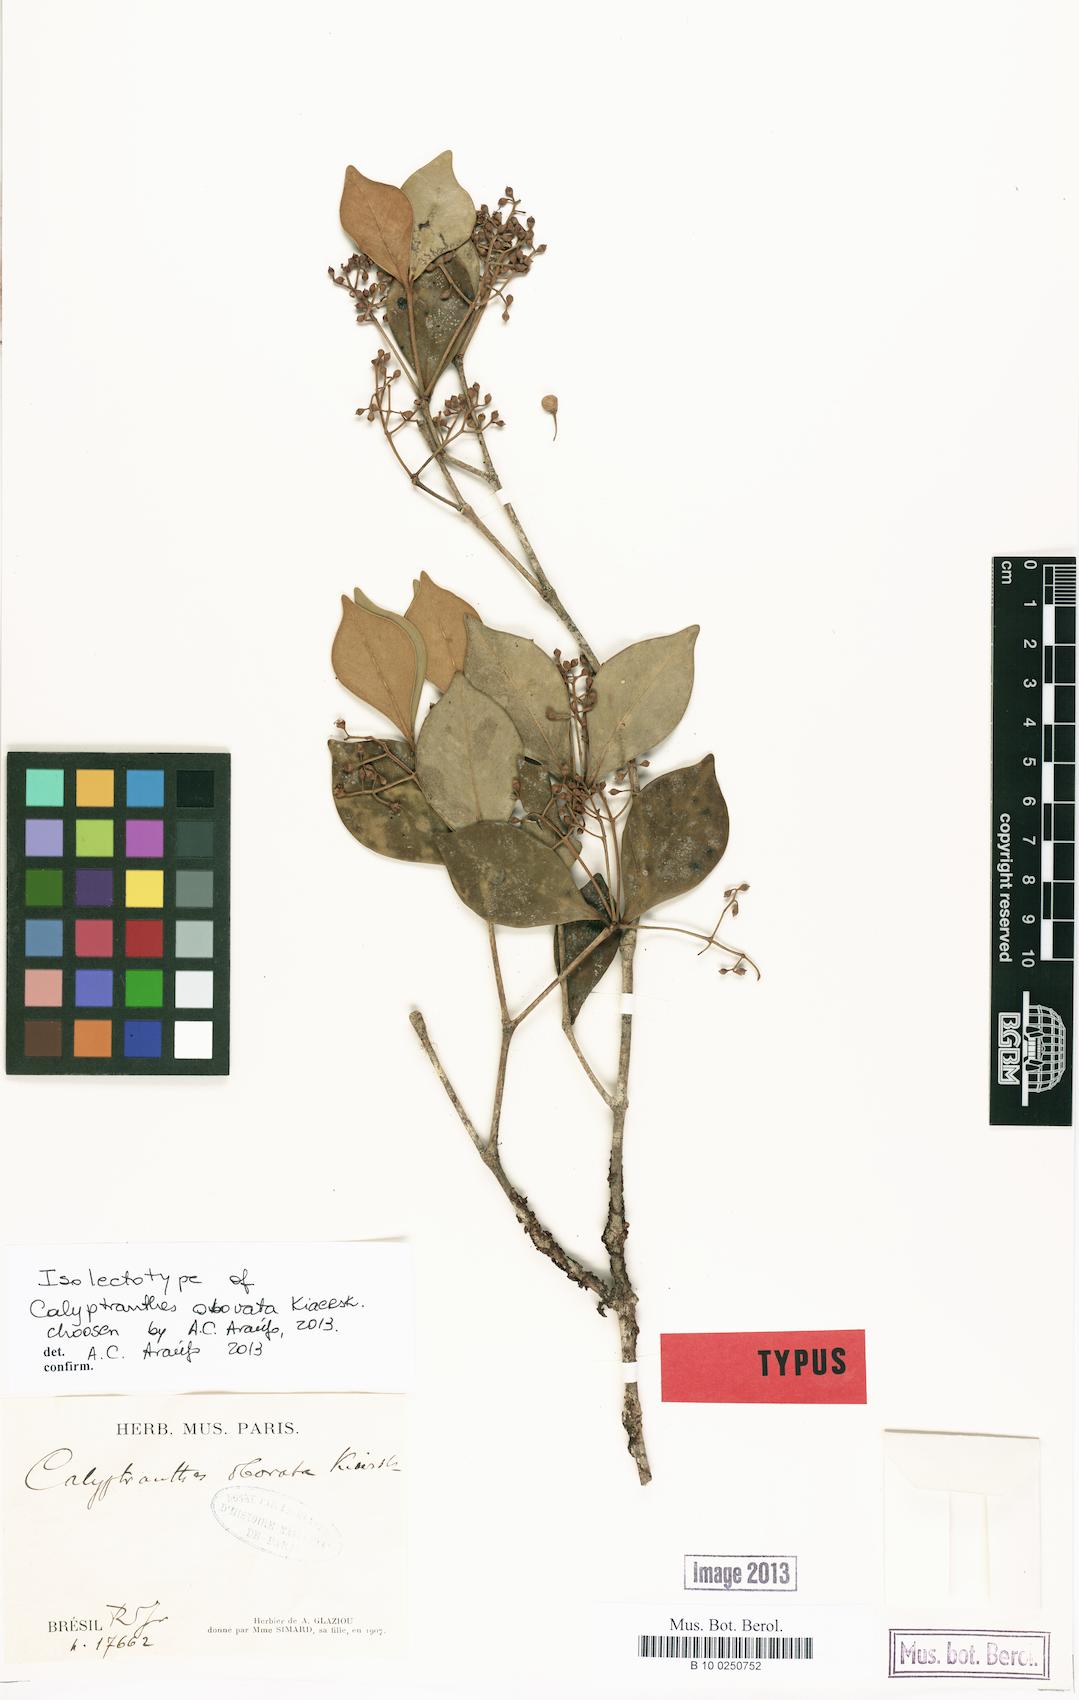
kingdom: Plantae
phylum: Tracheophyta
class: Magnoliopsida
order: Myrtales
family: Myrtaceae
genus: Myrcia
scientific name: Myrcia legrandii
